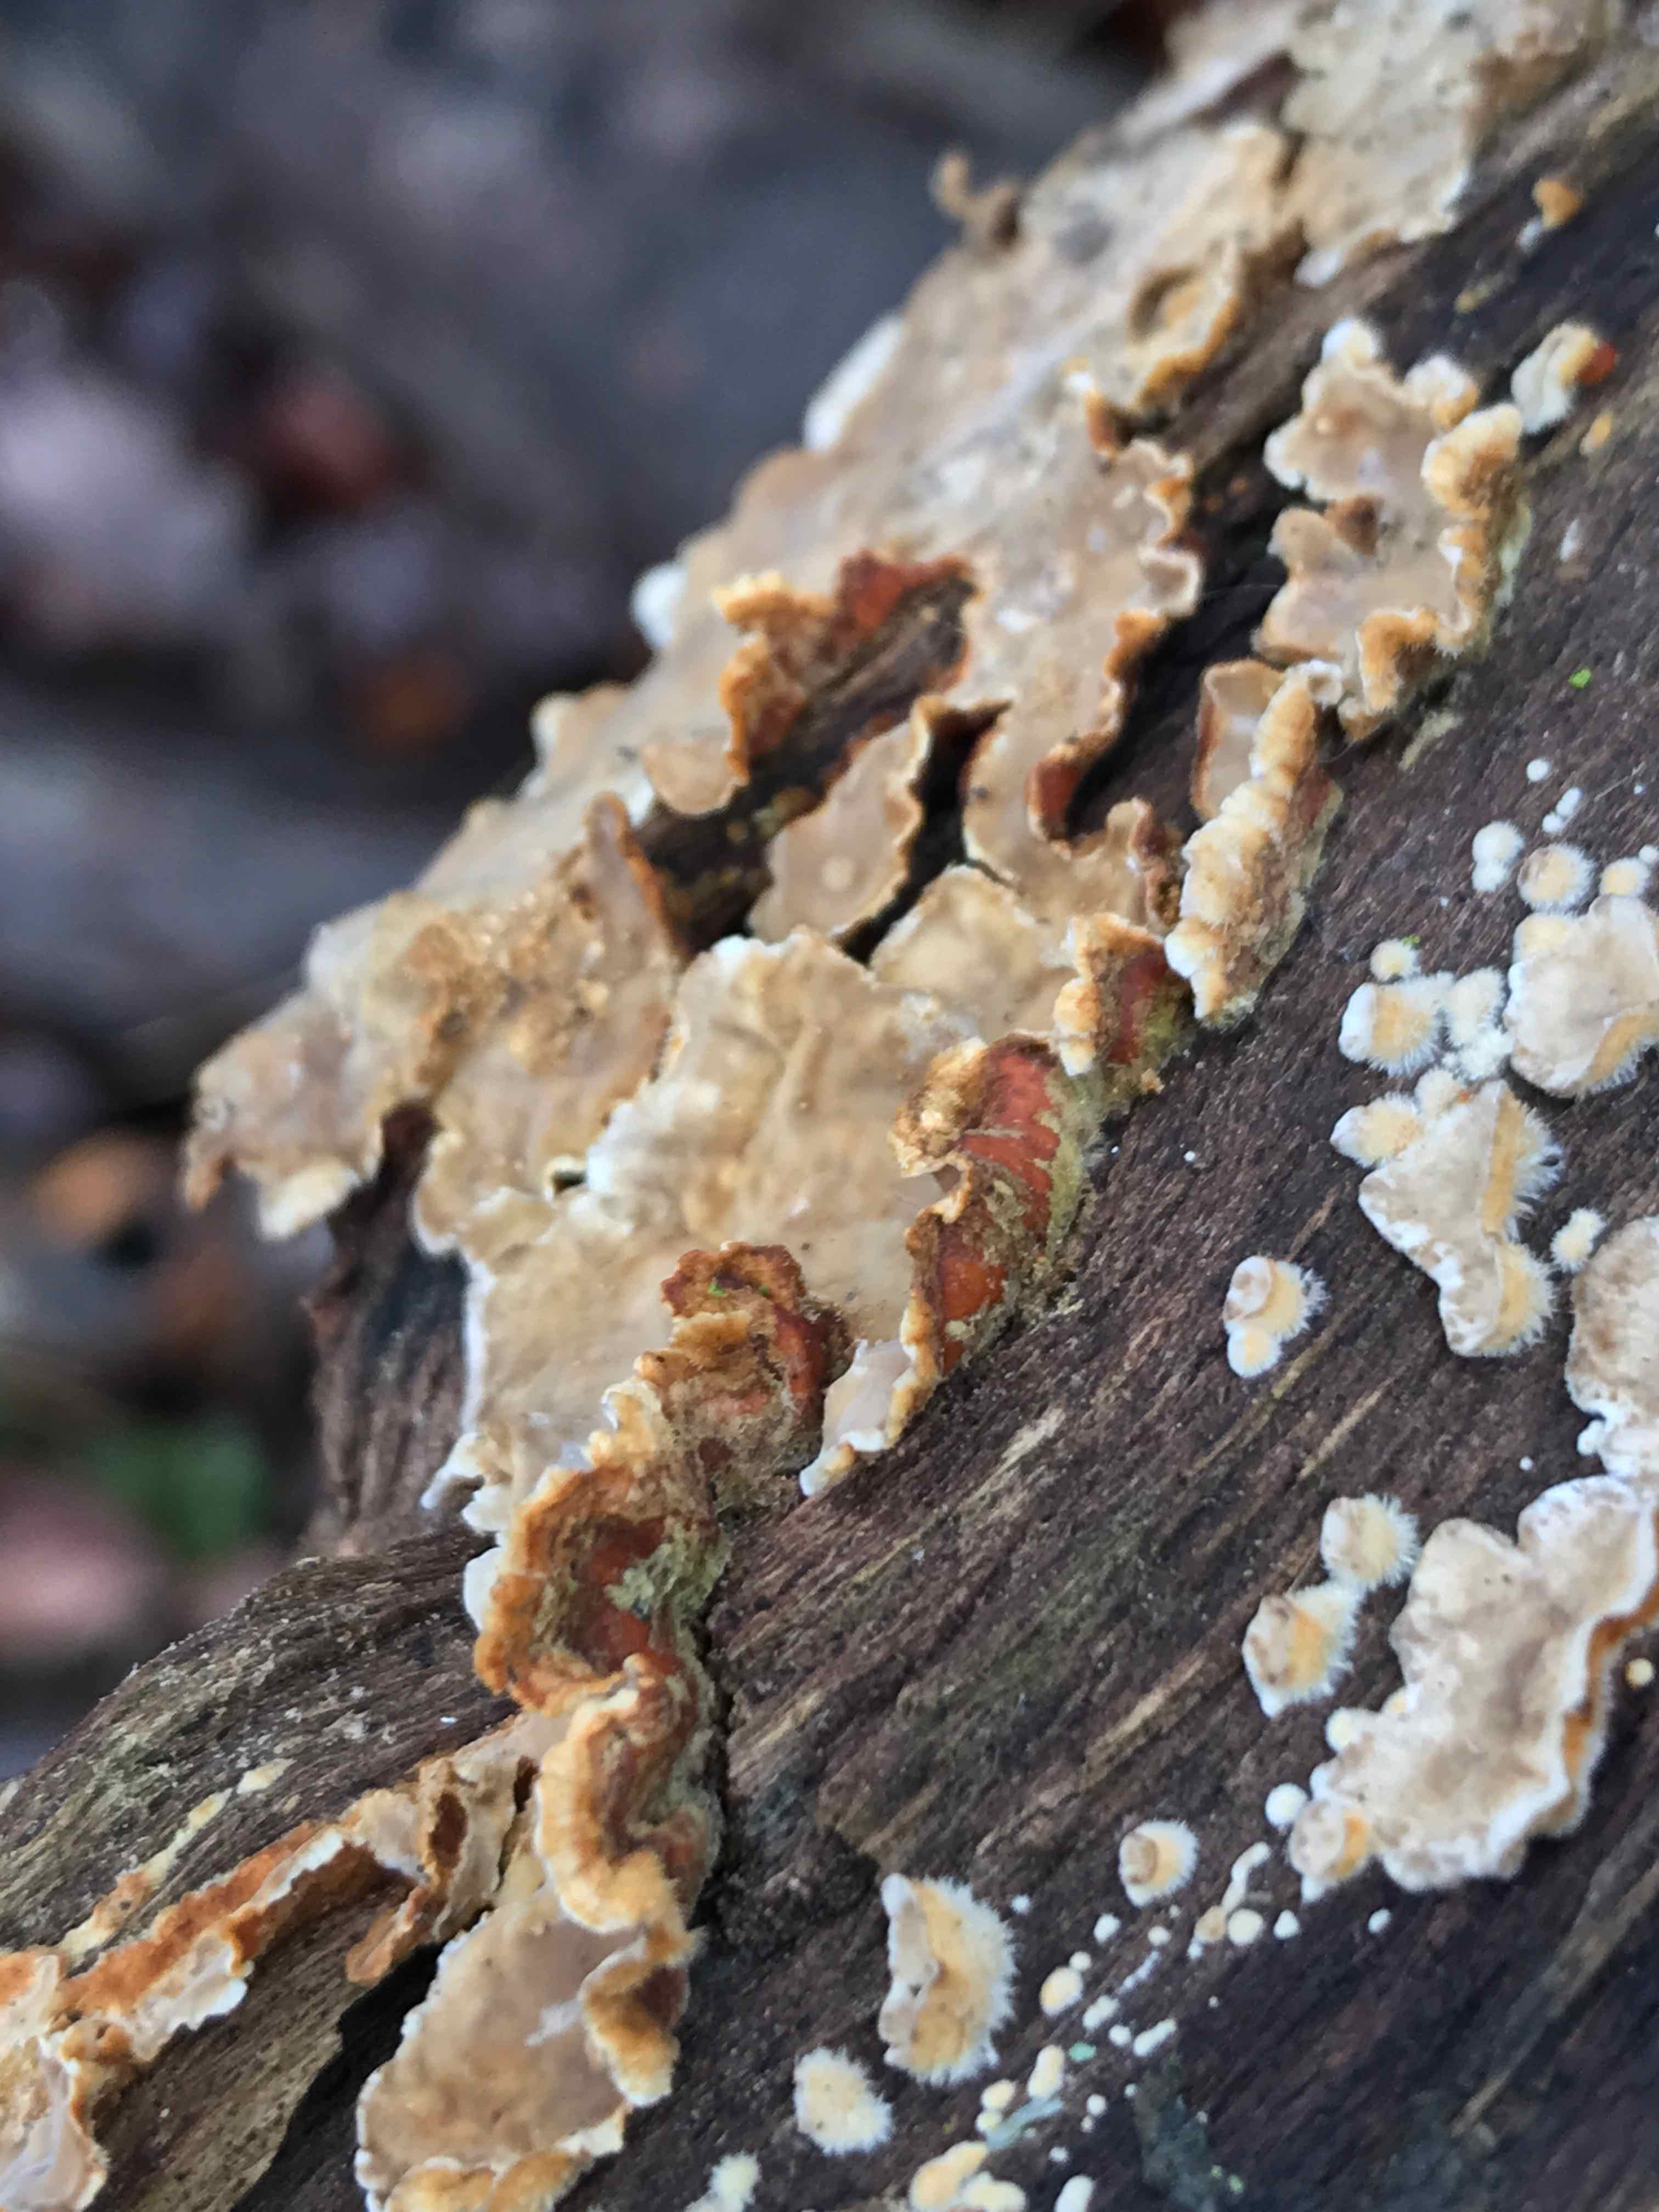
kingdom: Fungi
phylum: Basidiomycota
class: Agaricomycetes
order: Russulales
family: Stereaceae
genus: Stereum
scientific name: Stereum subtomentosum
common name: smuk lædersvamp
